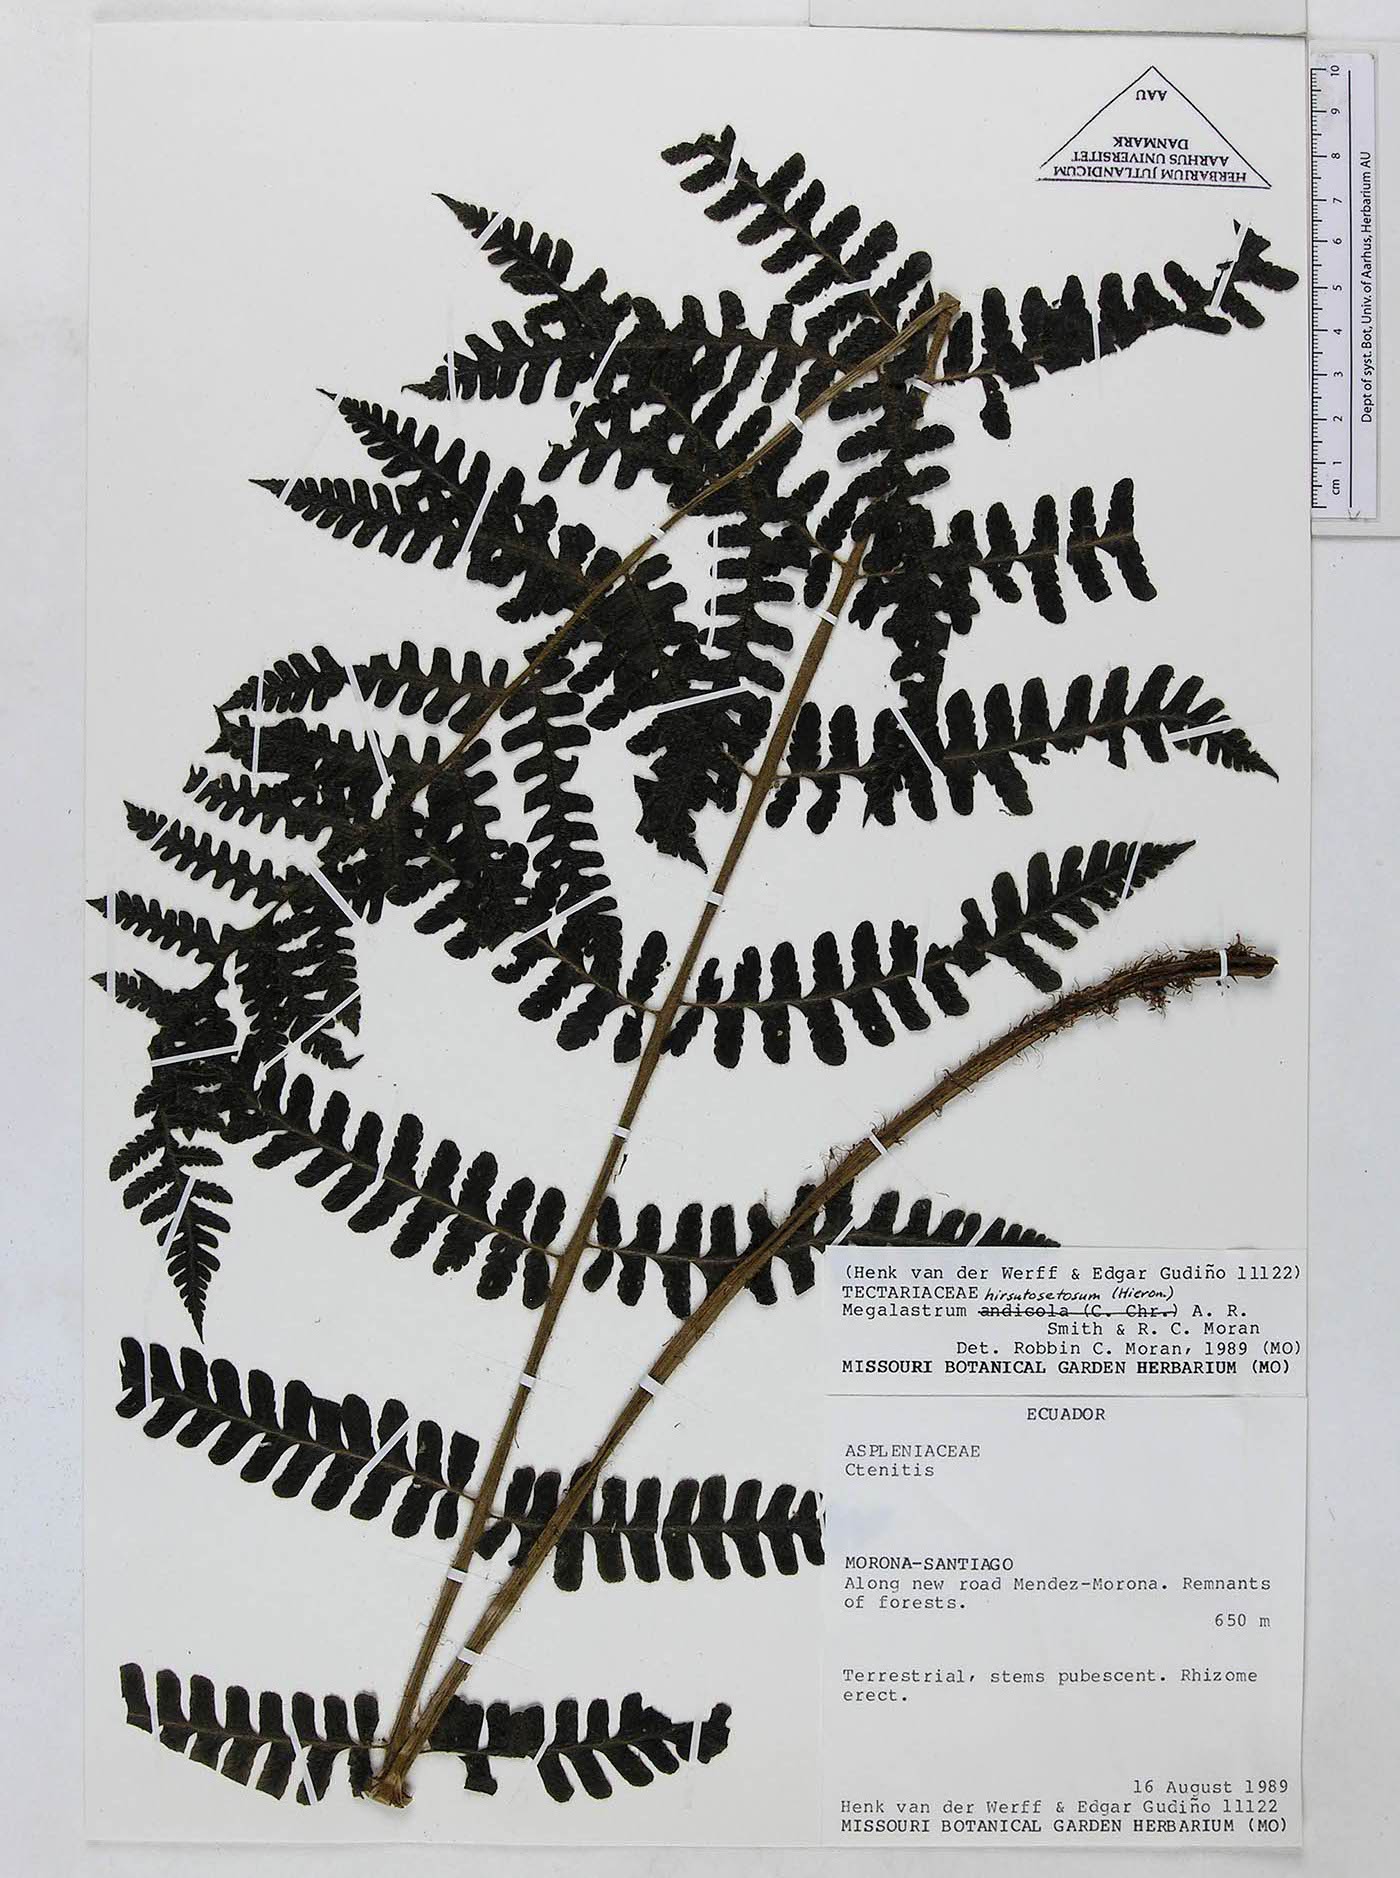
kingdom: Plantae
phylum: Tracheophyta
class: Polypodiopsida
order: Polypodiales
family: Dryopteridaceae
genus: Megalastrum
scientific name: Megalastrum hirsutosetosum
